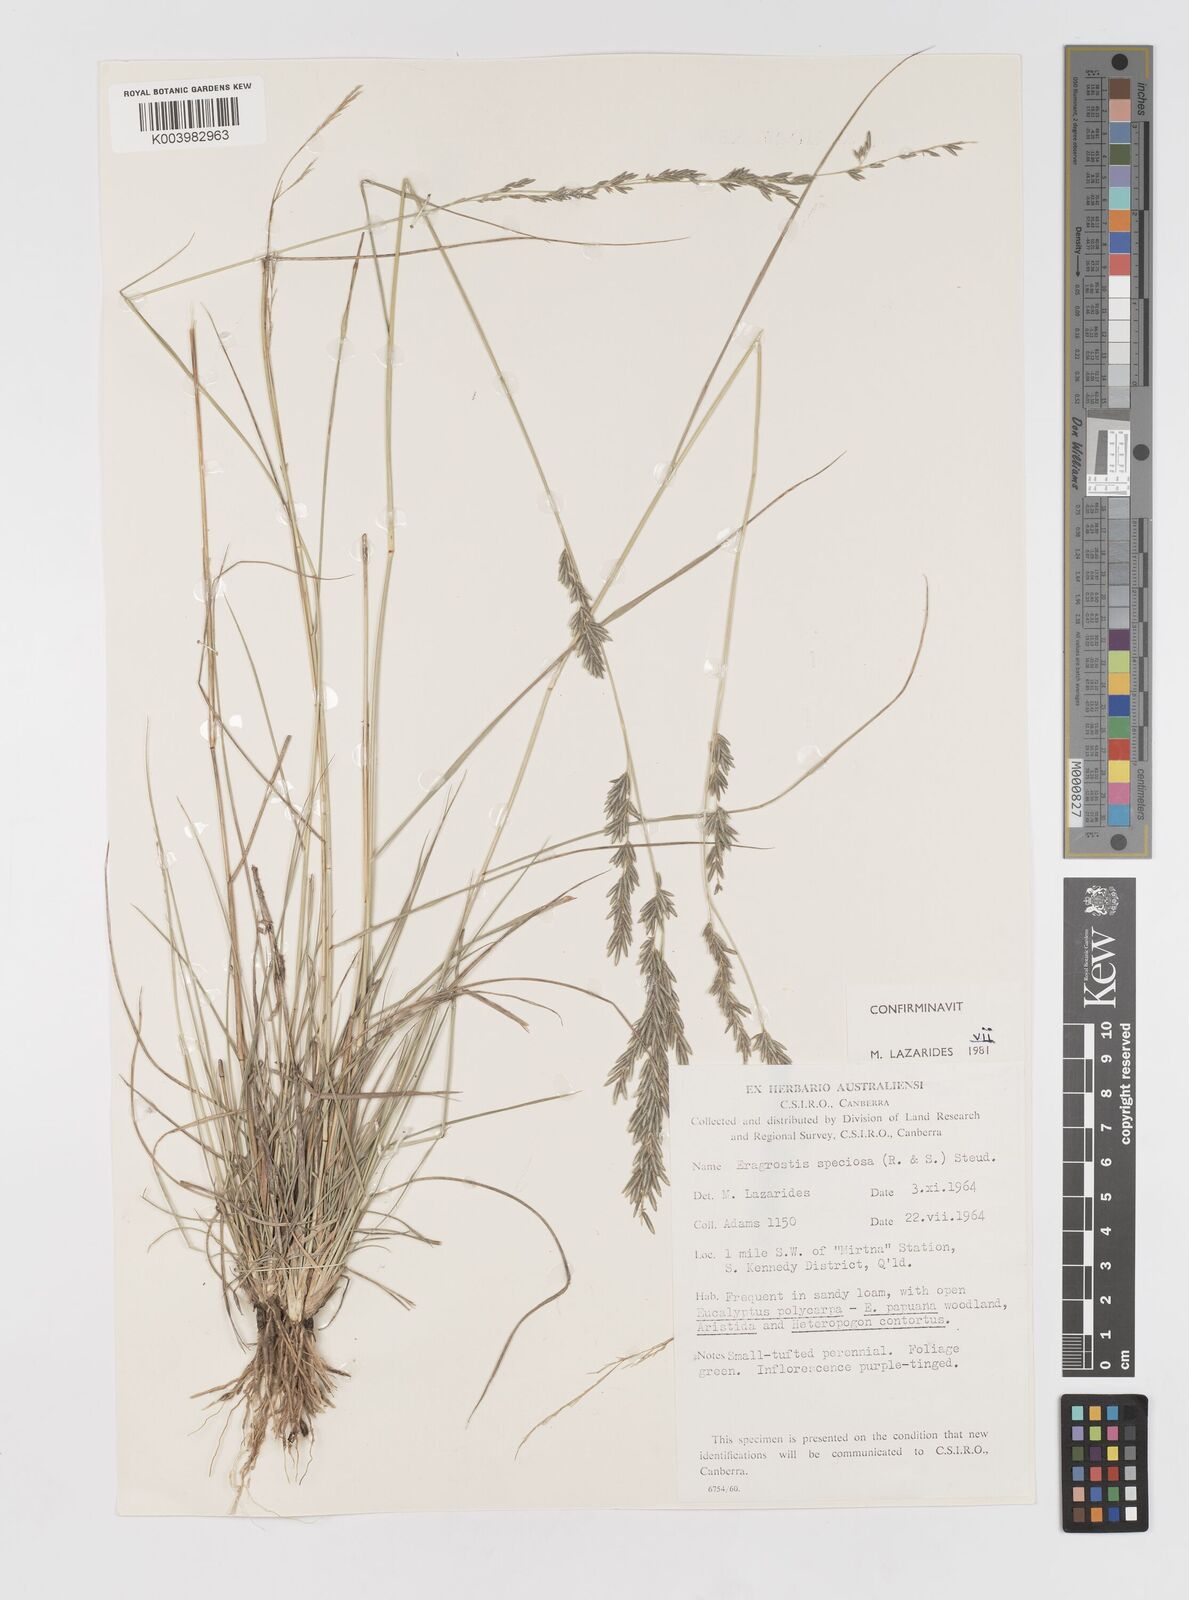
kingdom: Plantae
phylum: Tracheophyta
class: Liliopsida
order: Poales
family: Poaceae
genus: Eragrostis
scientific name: Eragrostis speciosa
